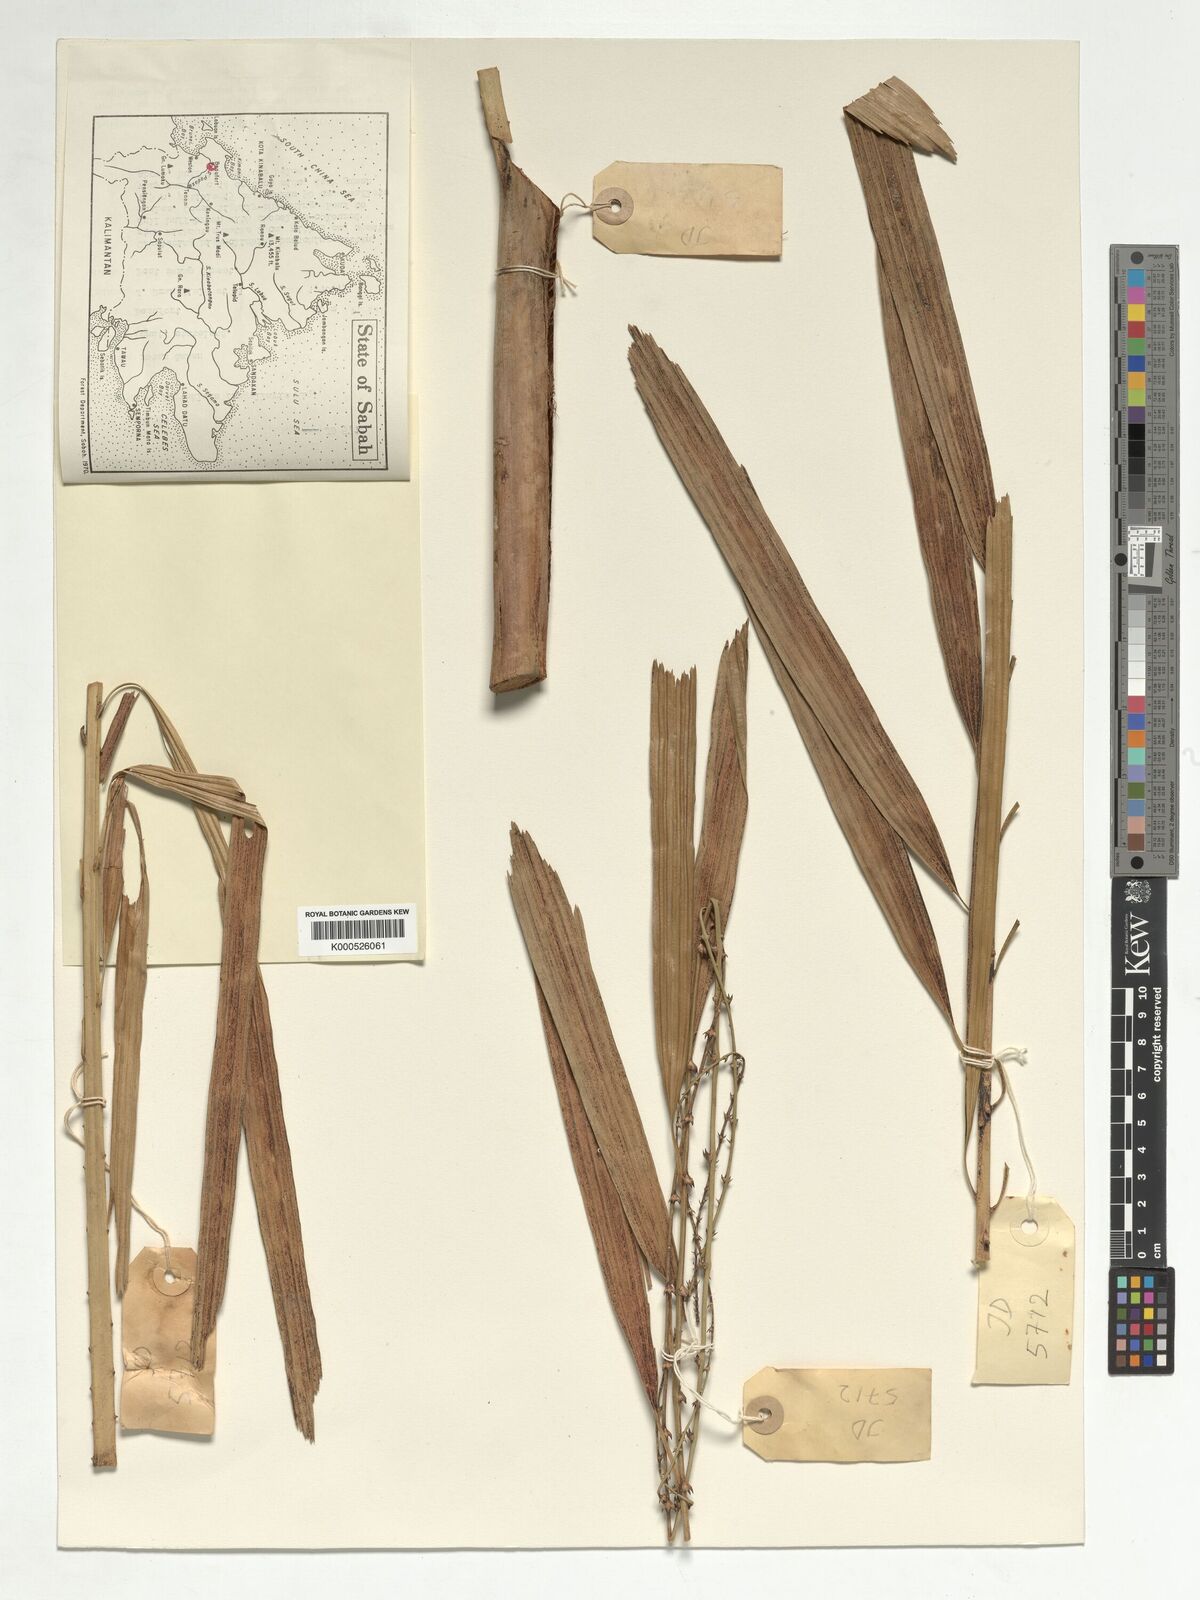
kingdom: Plantae
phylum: Tracheophyta
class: Liliopsida
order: Arecales
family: Arecaceae
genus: Korthalsia
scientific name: Korthalsia flagellaris
